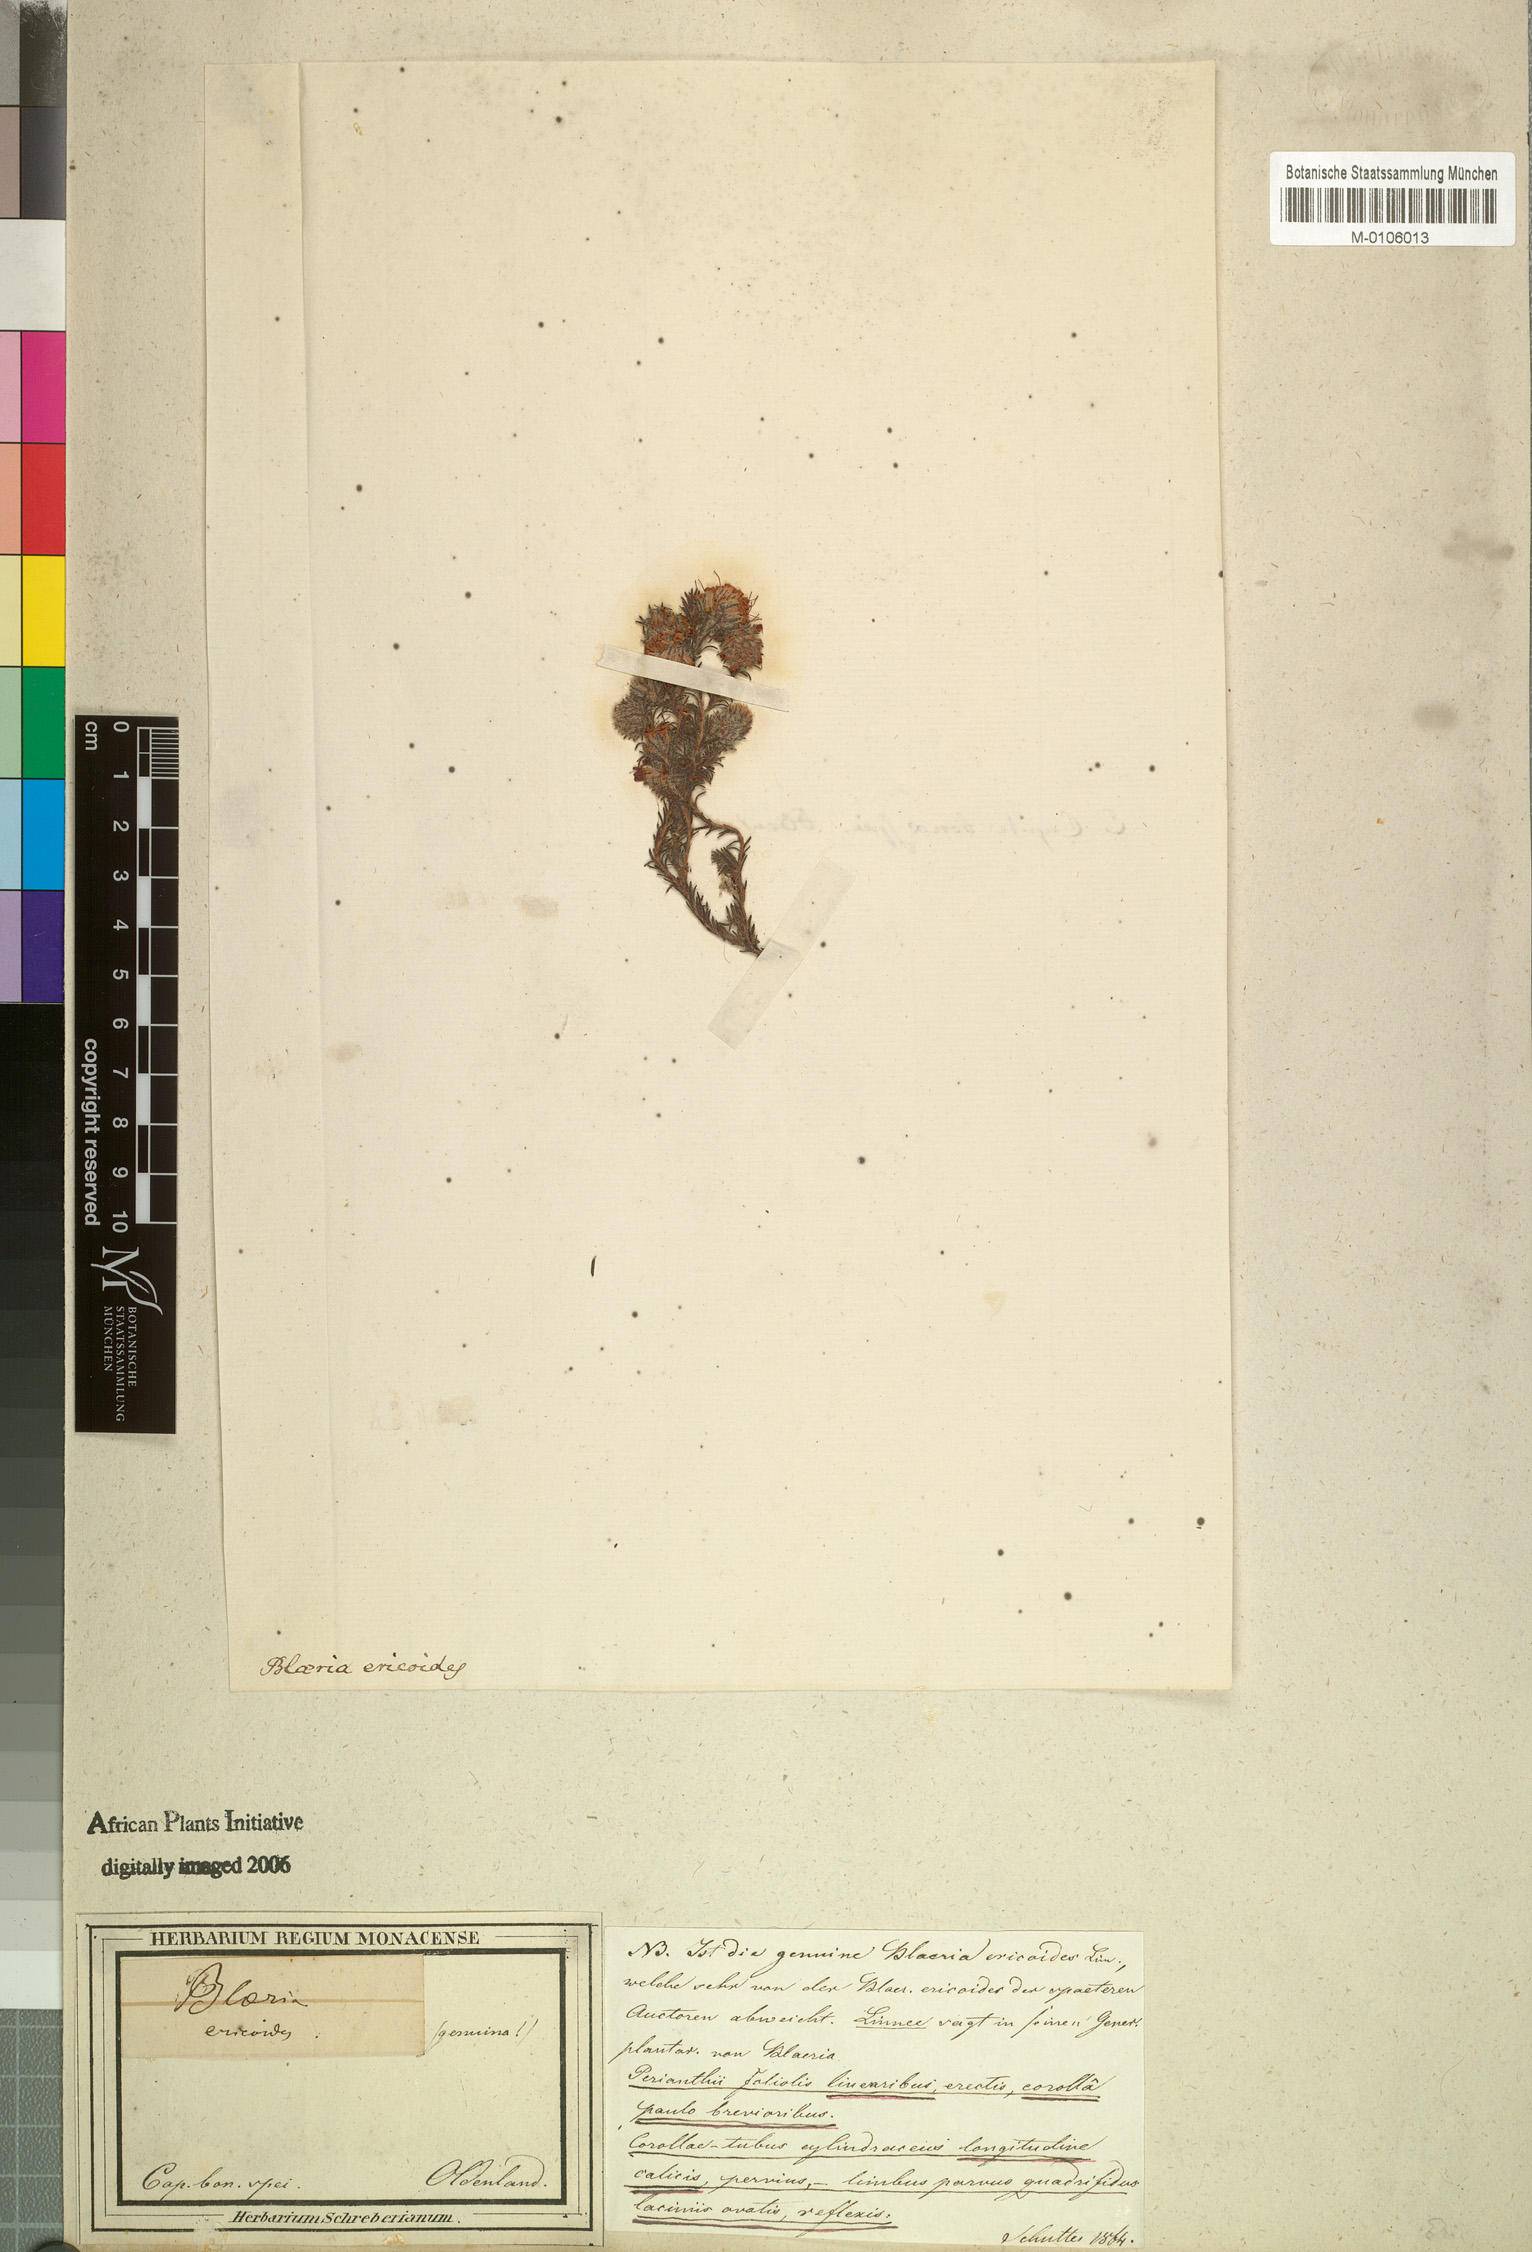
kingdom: Plantae
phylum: Tracheophyta
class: Magnoliopsida
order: Ericales
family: Ericaceae
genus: Erica
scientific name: Erica ericoides
